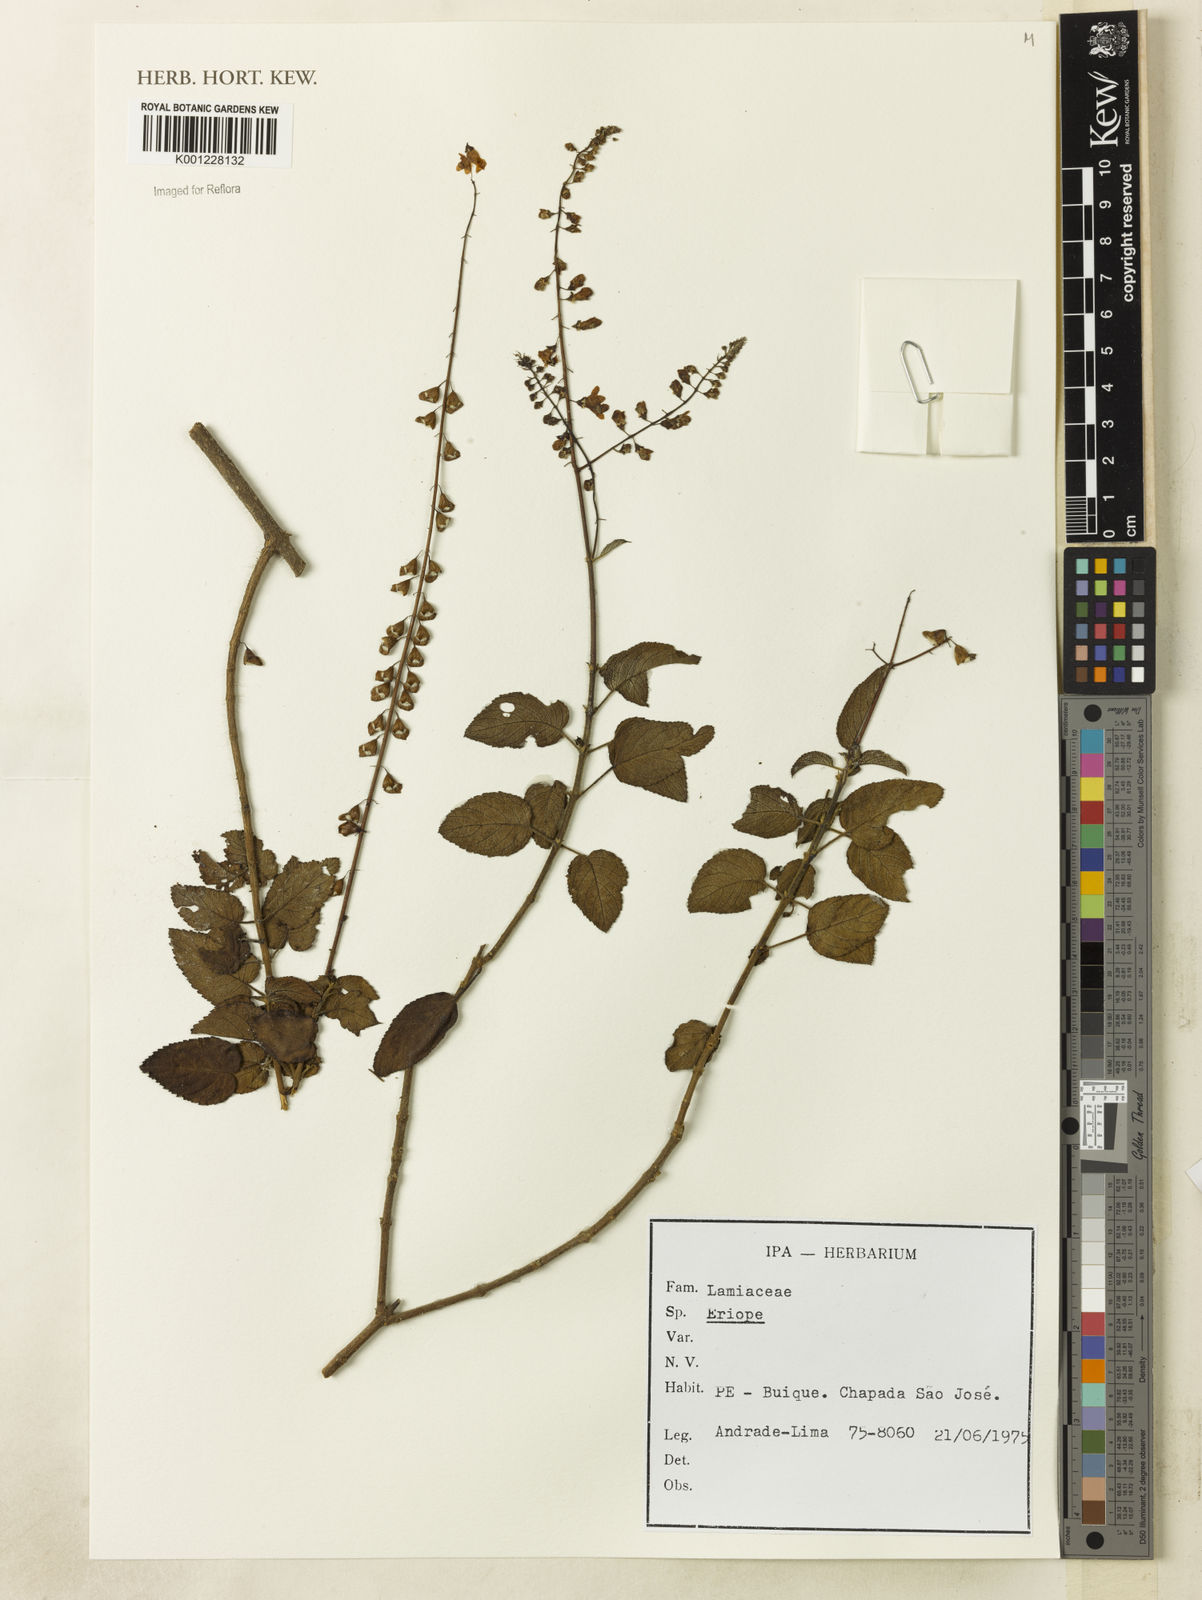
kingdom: Plantae
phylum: Tracheophyta
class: Magnoliopsida
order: Lamiales
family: Lamiaceae
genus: Eriope
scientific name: Eriope
